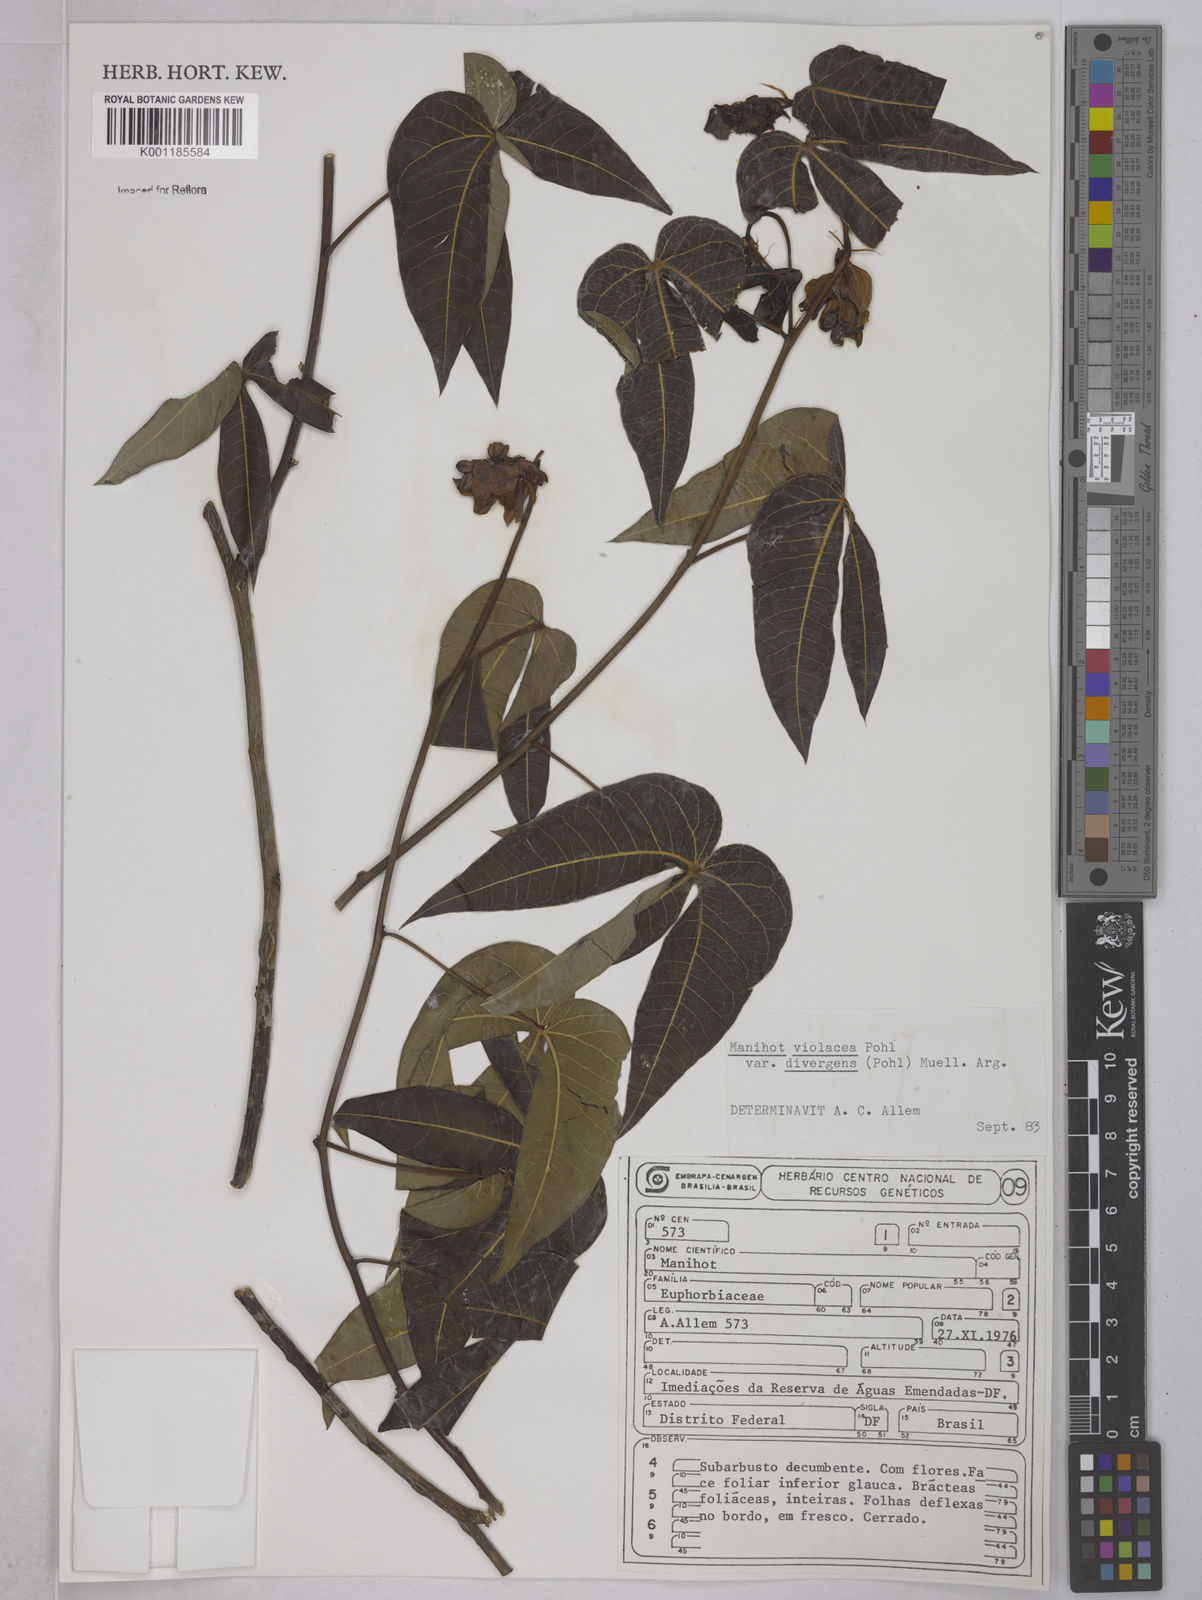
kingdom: Plantae
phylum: Tracheophyta
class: Magnoliopsida
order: Malpighiales
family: Euphorbiaceae
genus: Manihot
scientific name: Manihot divergens
